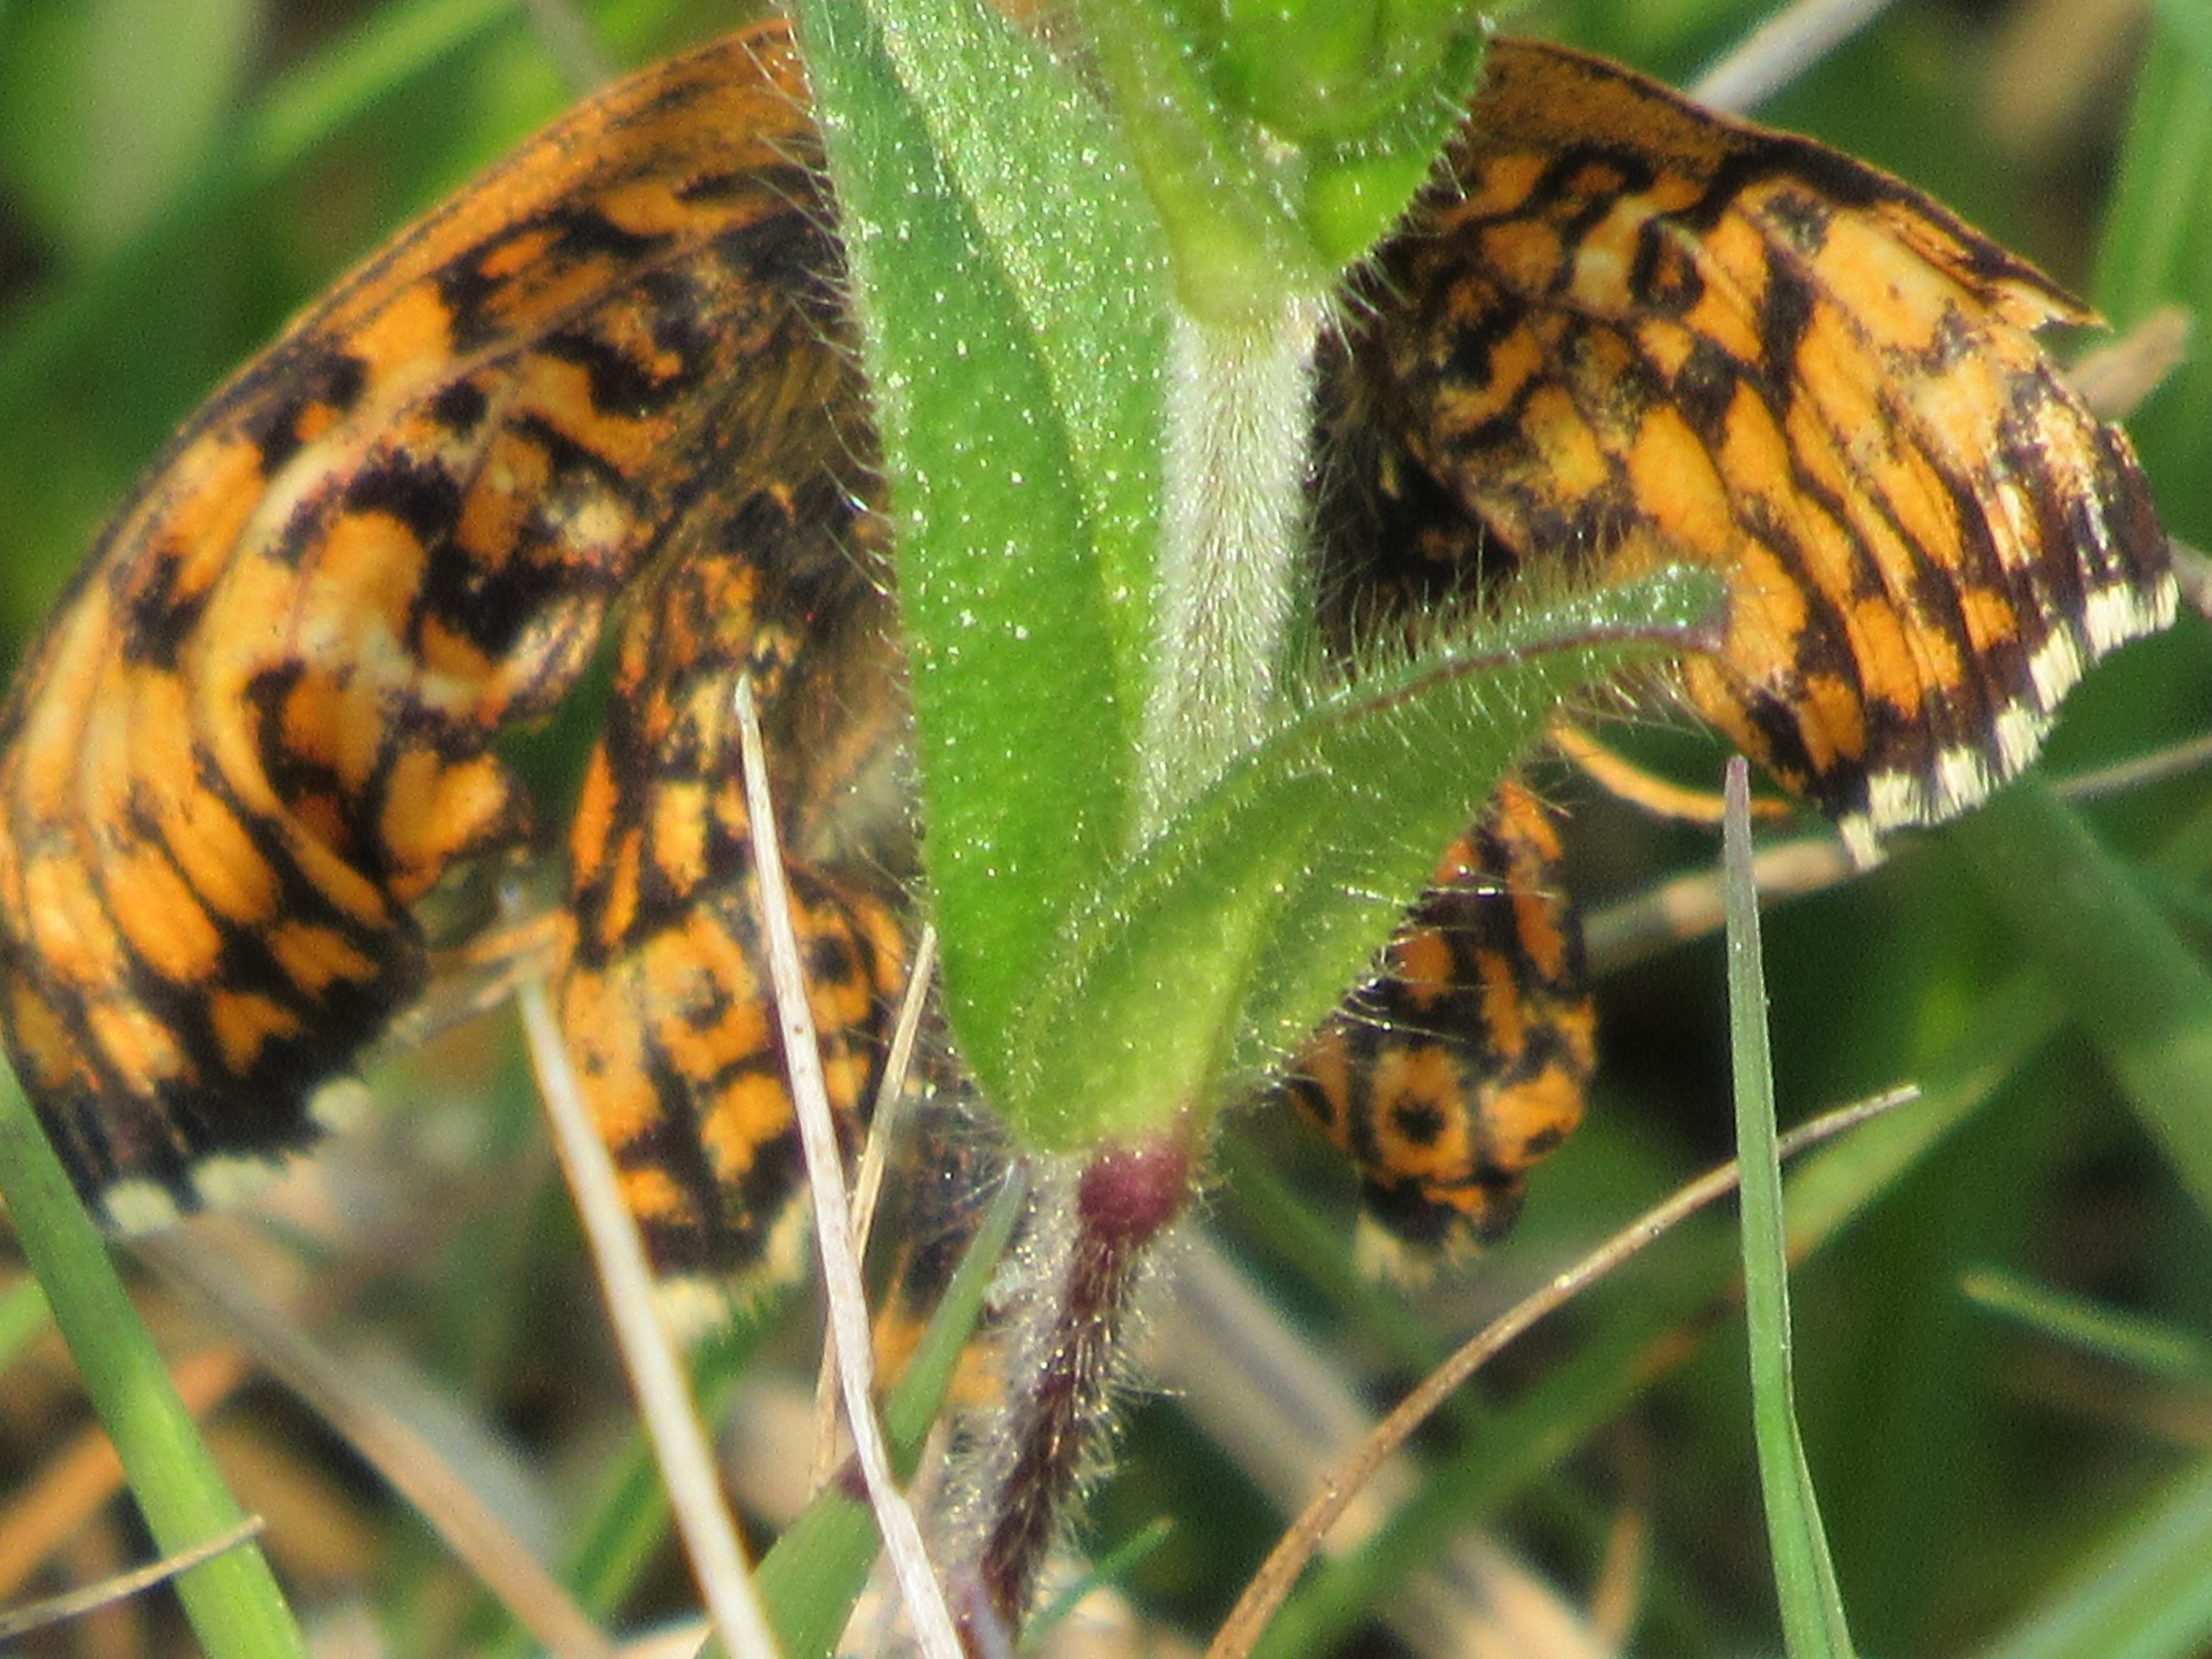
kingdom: Animalia
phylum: Arthropoda
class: Insecta
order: Lepidoptera
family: Nymphalidae
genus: Melitaea
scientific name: Melitaea cinxia
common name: Okkergul pletvinge
